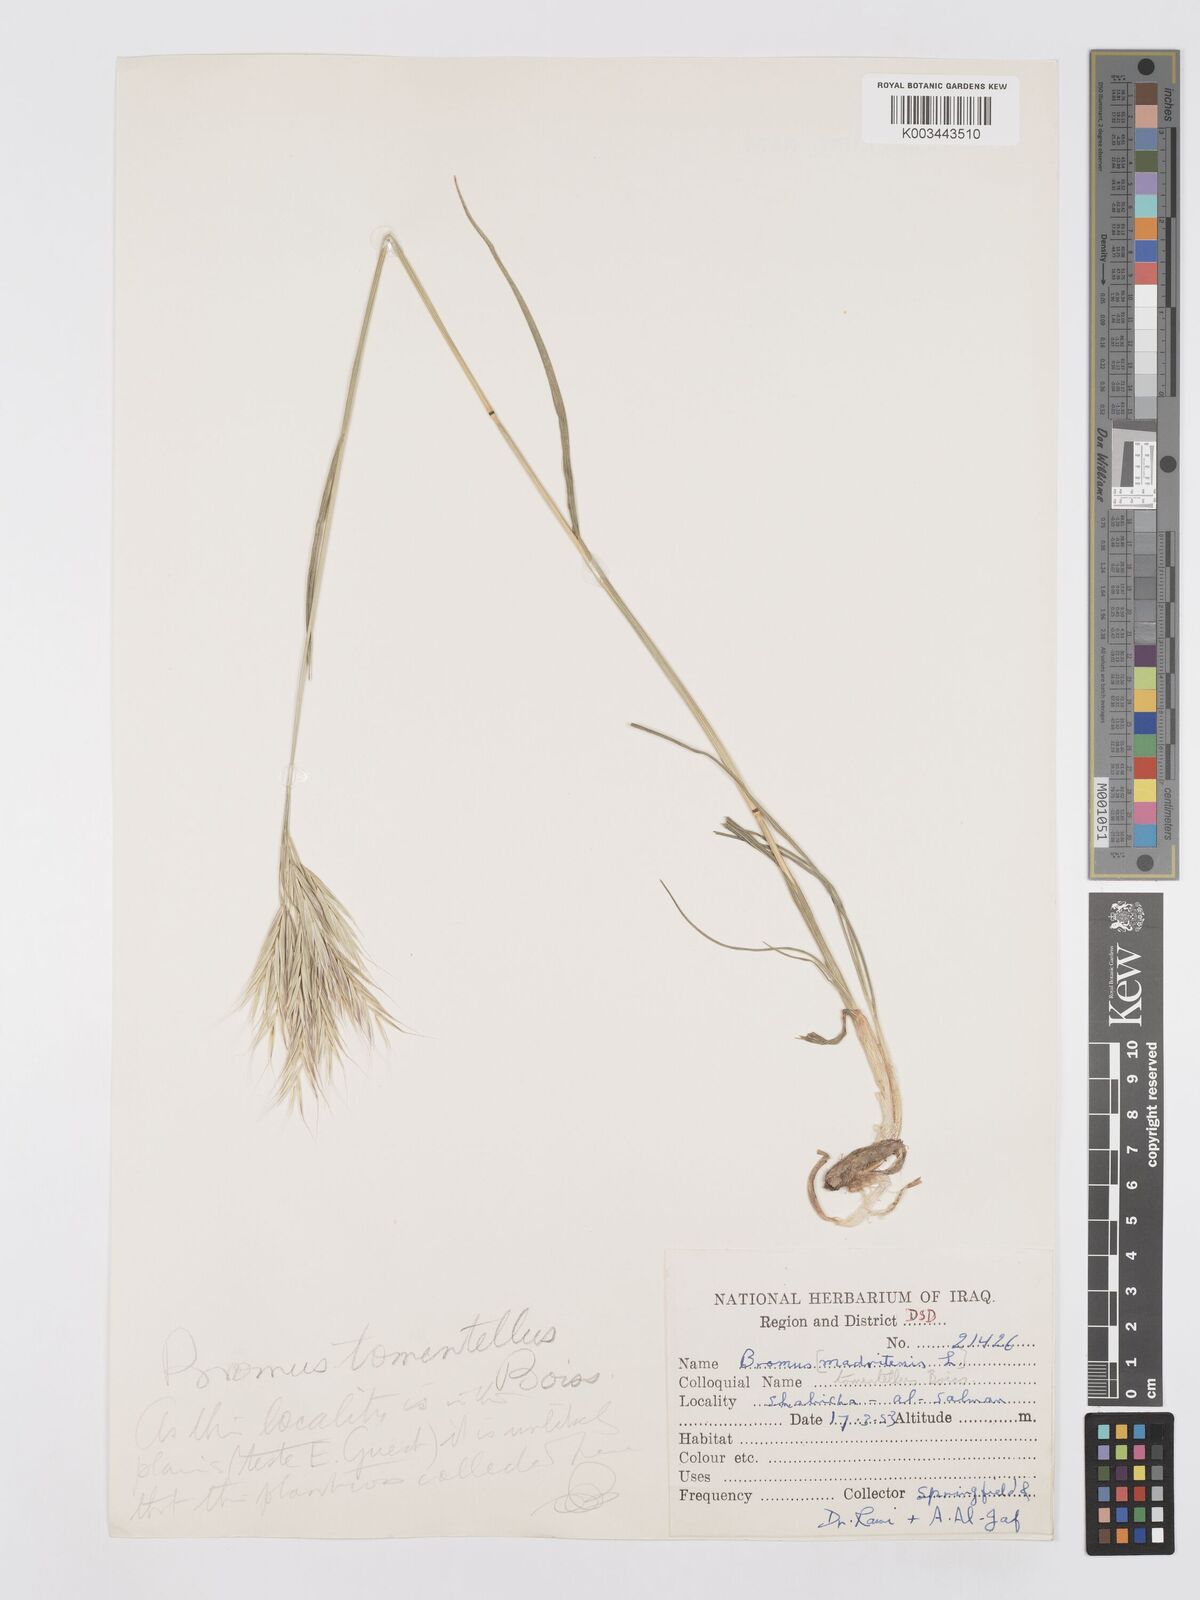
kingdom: Plantae
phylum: Tracheophyta
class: Liliopsida
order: Poales
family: Poaceae
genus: Bromus
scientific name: Bromus tomentellus
